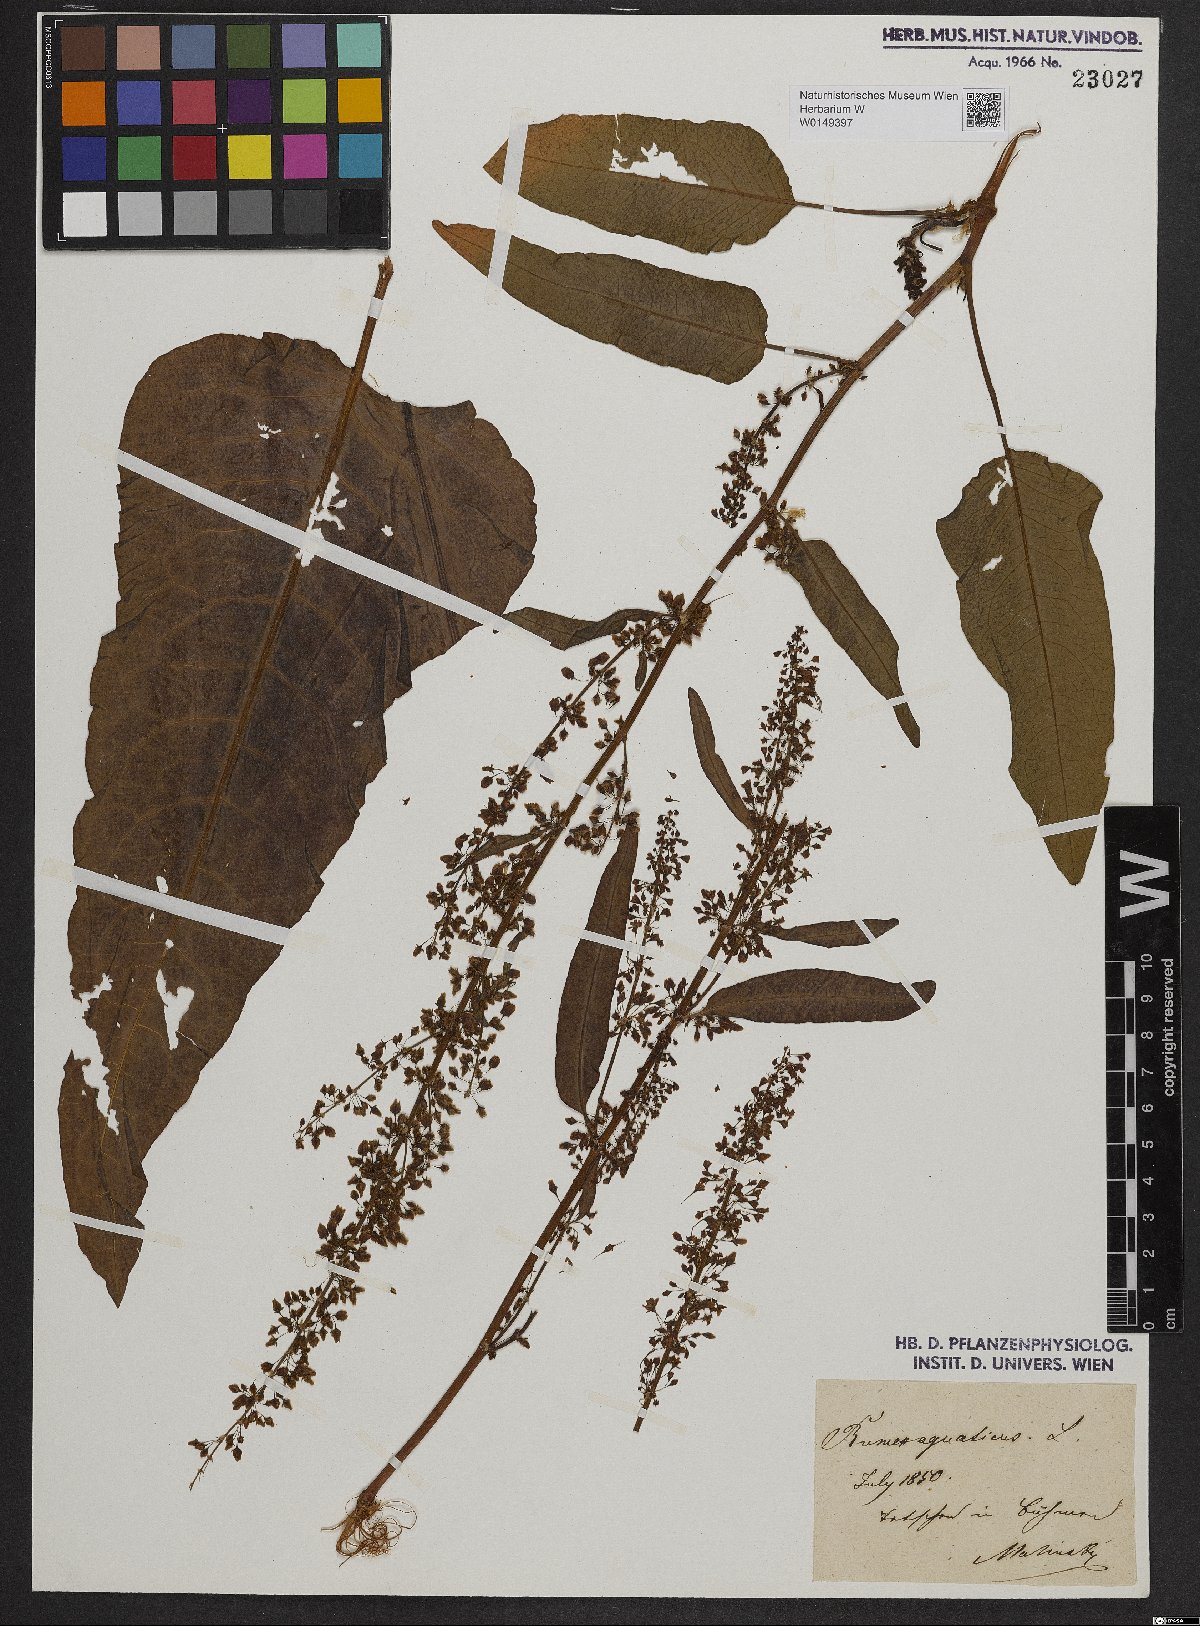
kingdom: Plantae
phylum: Tracheophyta
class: Magnoliopsida
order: Caryophyllales
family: Polygonaceae
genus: Rumex
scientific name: Rumex alpinus
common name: Alpine dock
